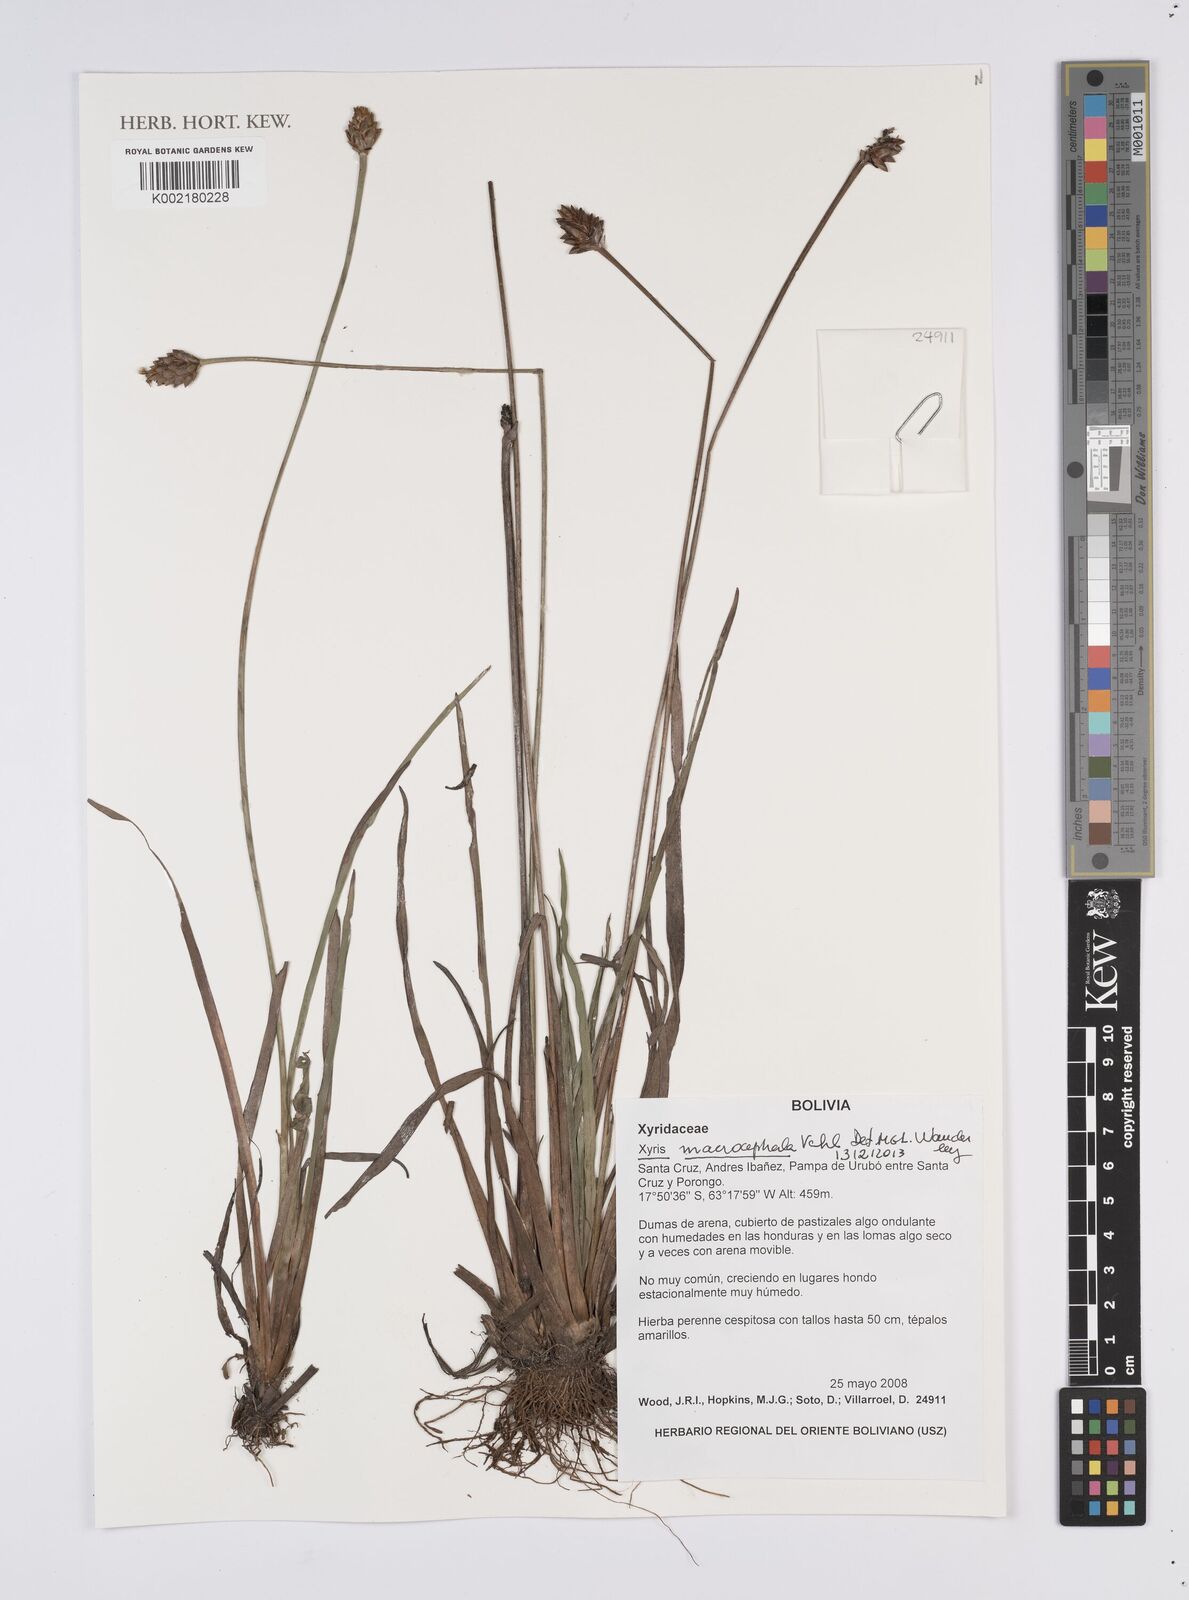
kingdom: Plantae
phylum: Tracheophyta
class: Liliopsida
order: Poales
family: Xyridaceae
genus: Xyris
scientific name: Xyris laxiflora
